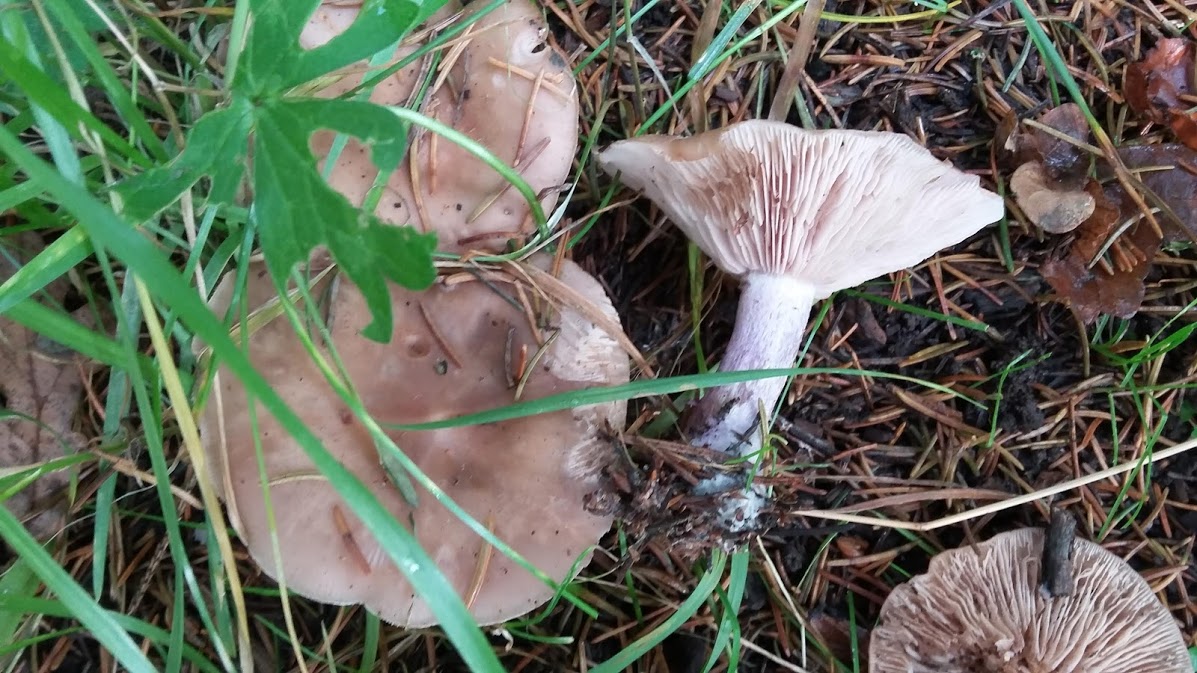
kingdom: Fungi
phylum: Basidiomycota
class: Agaricomycetes
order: Agaricales
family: Tricholomataceae
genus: Lepista
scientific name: Lepista personata
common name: bleg hekseringshat
